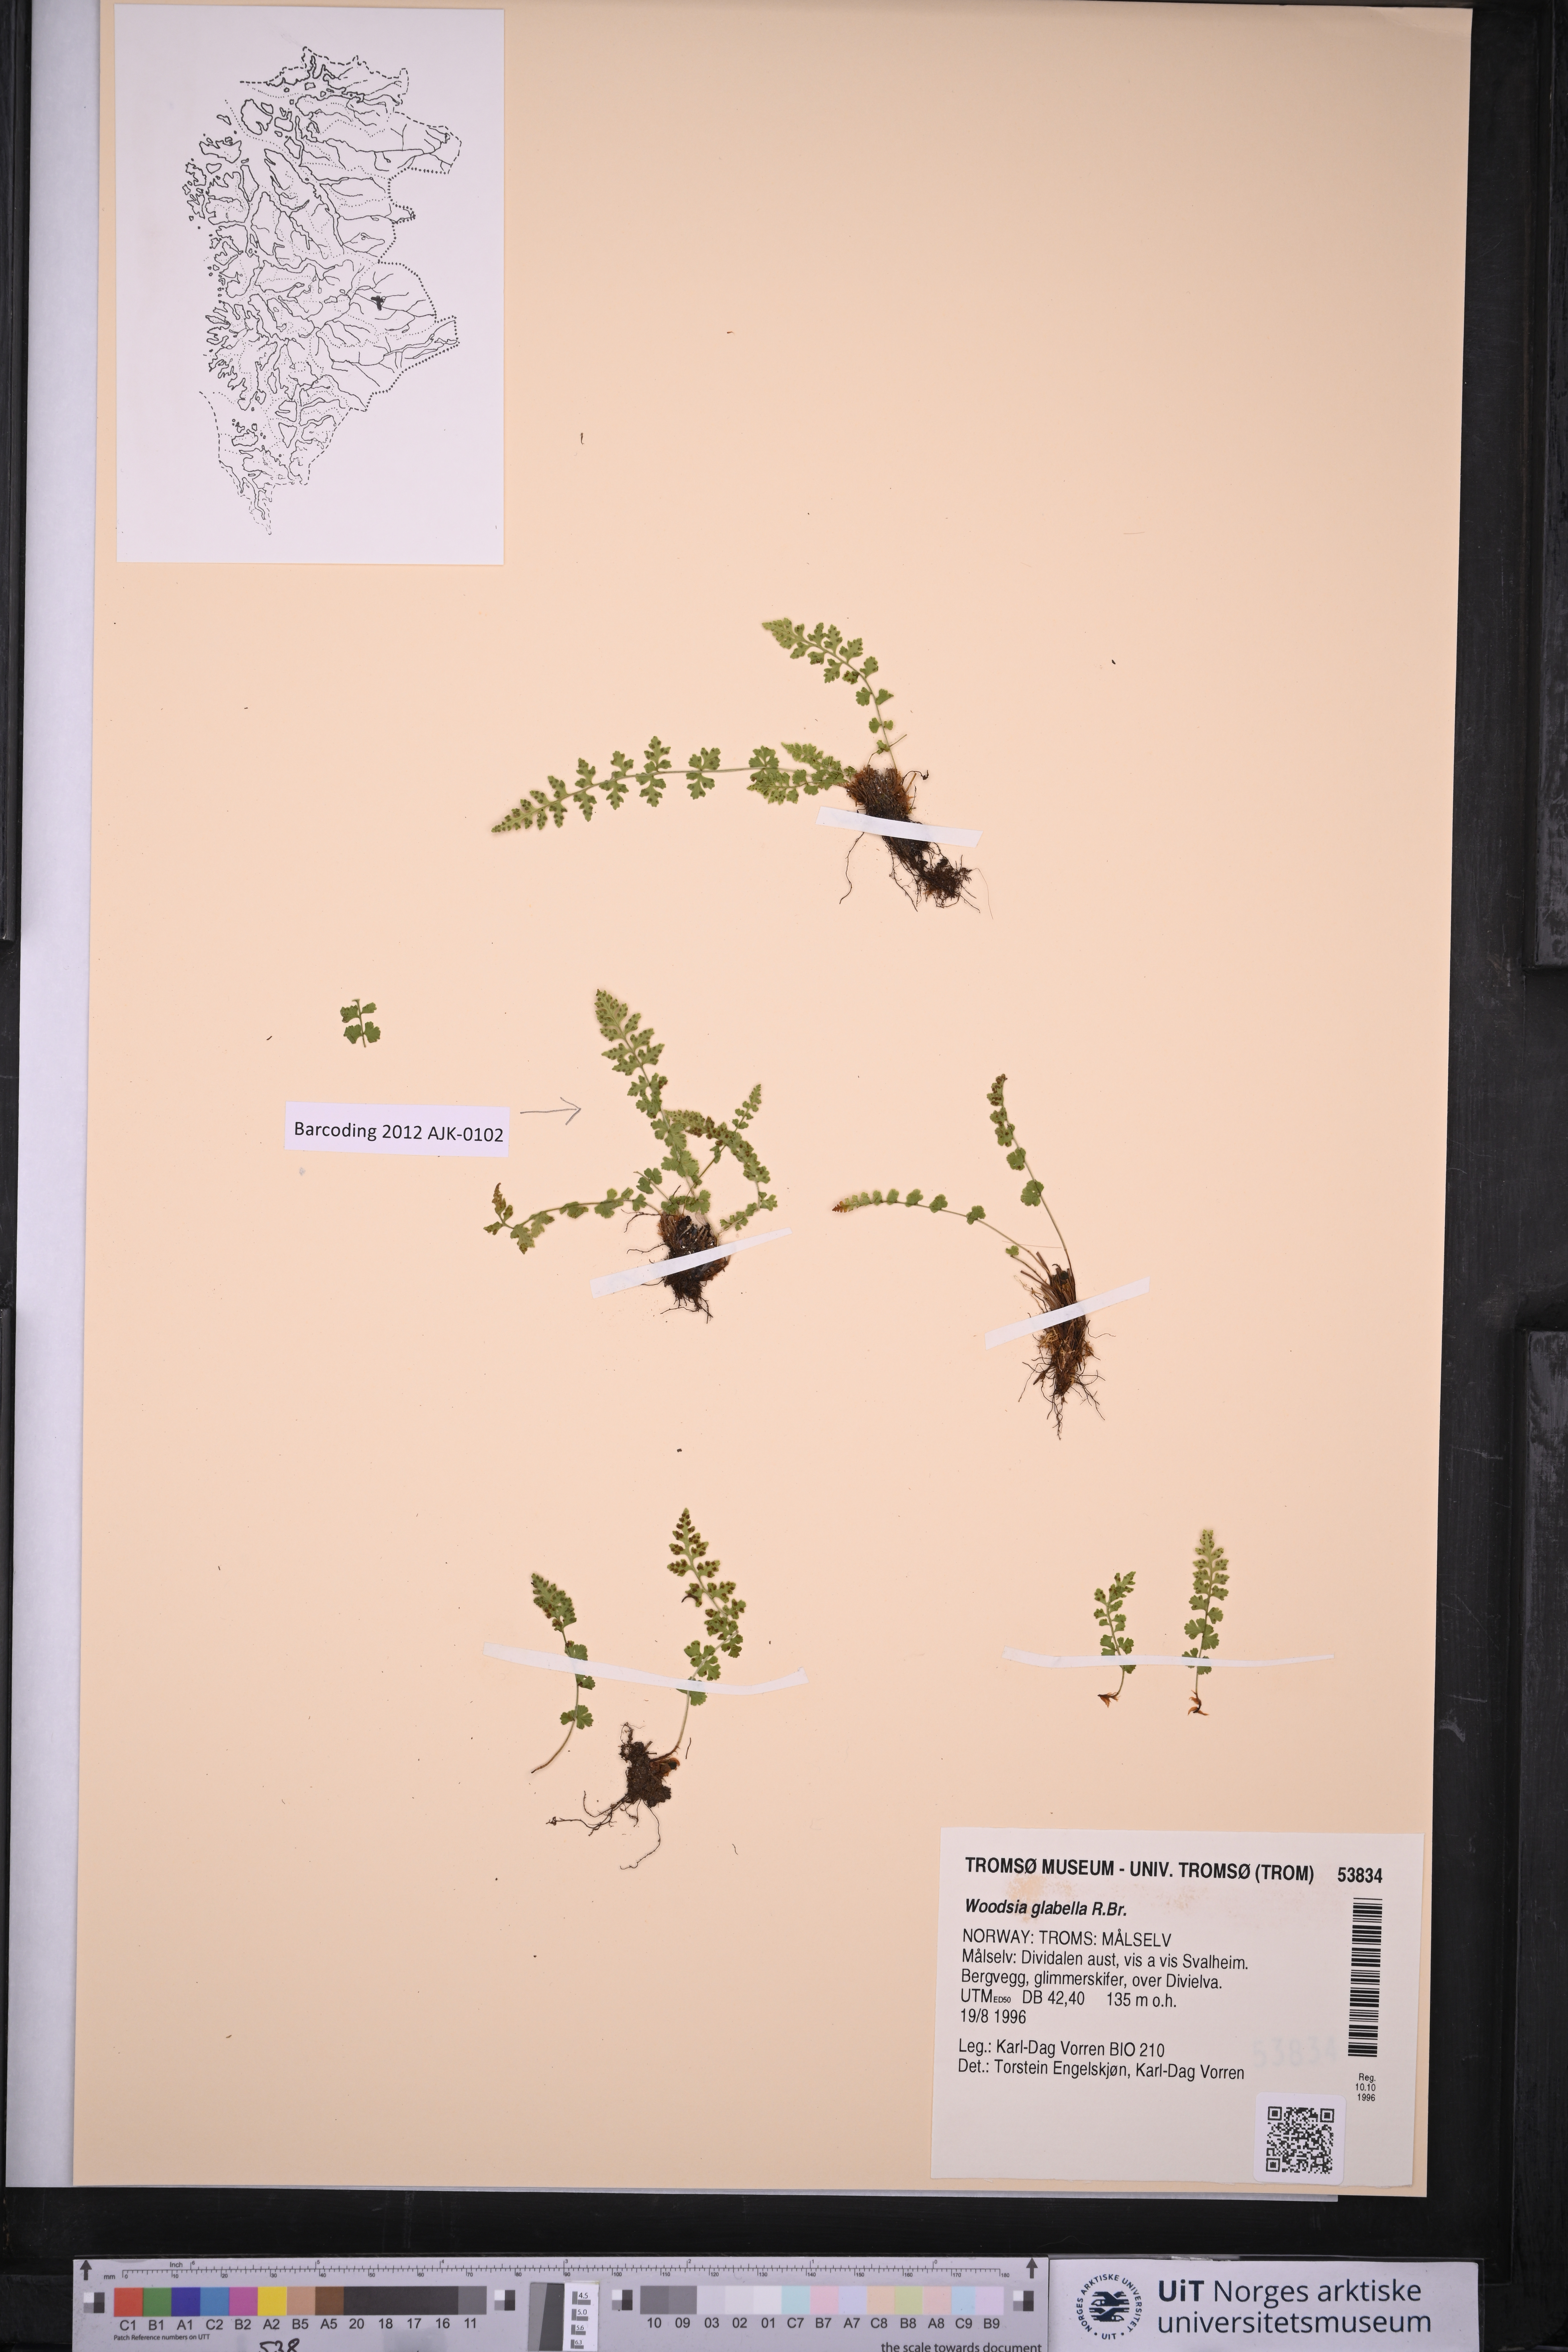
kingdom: Plantae
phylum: Tracheophyta
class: Polypodiopsida
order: Polypodiales
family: Woodsiaceae
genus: Woodsia
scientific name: Woodsia glabella
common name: Smooth woodsia
